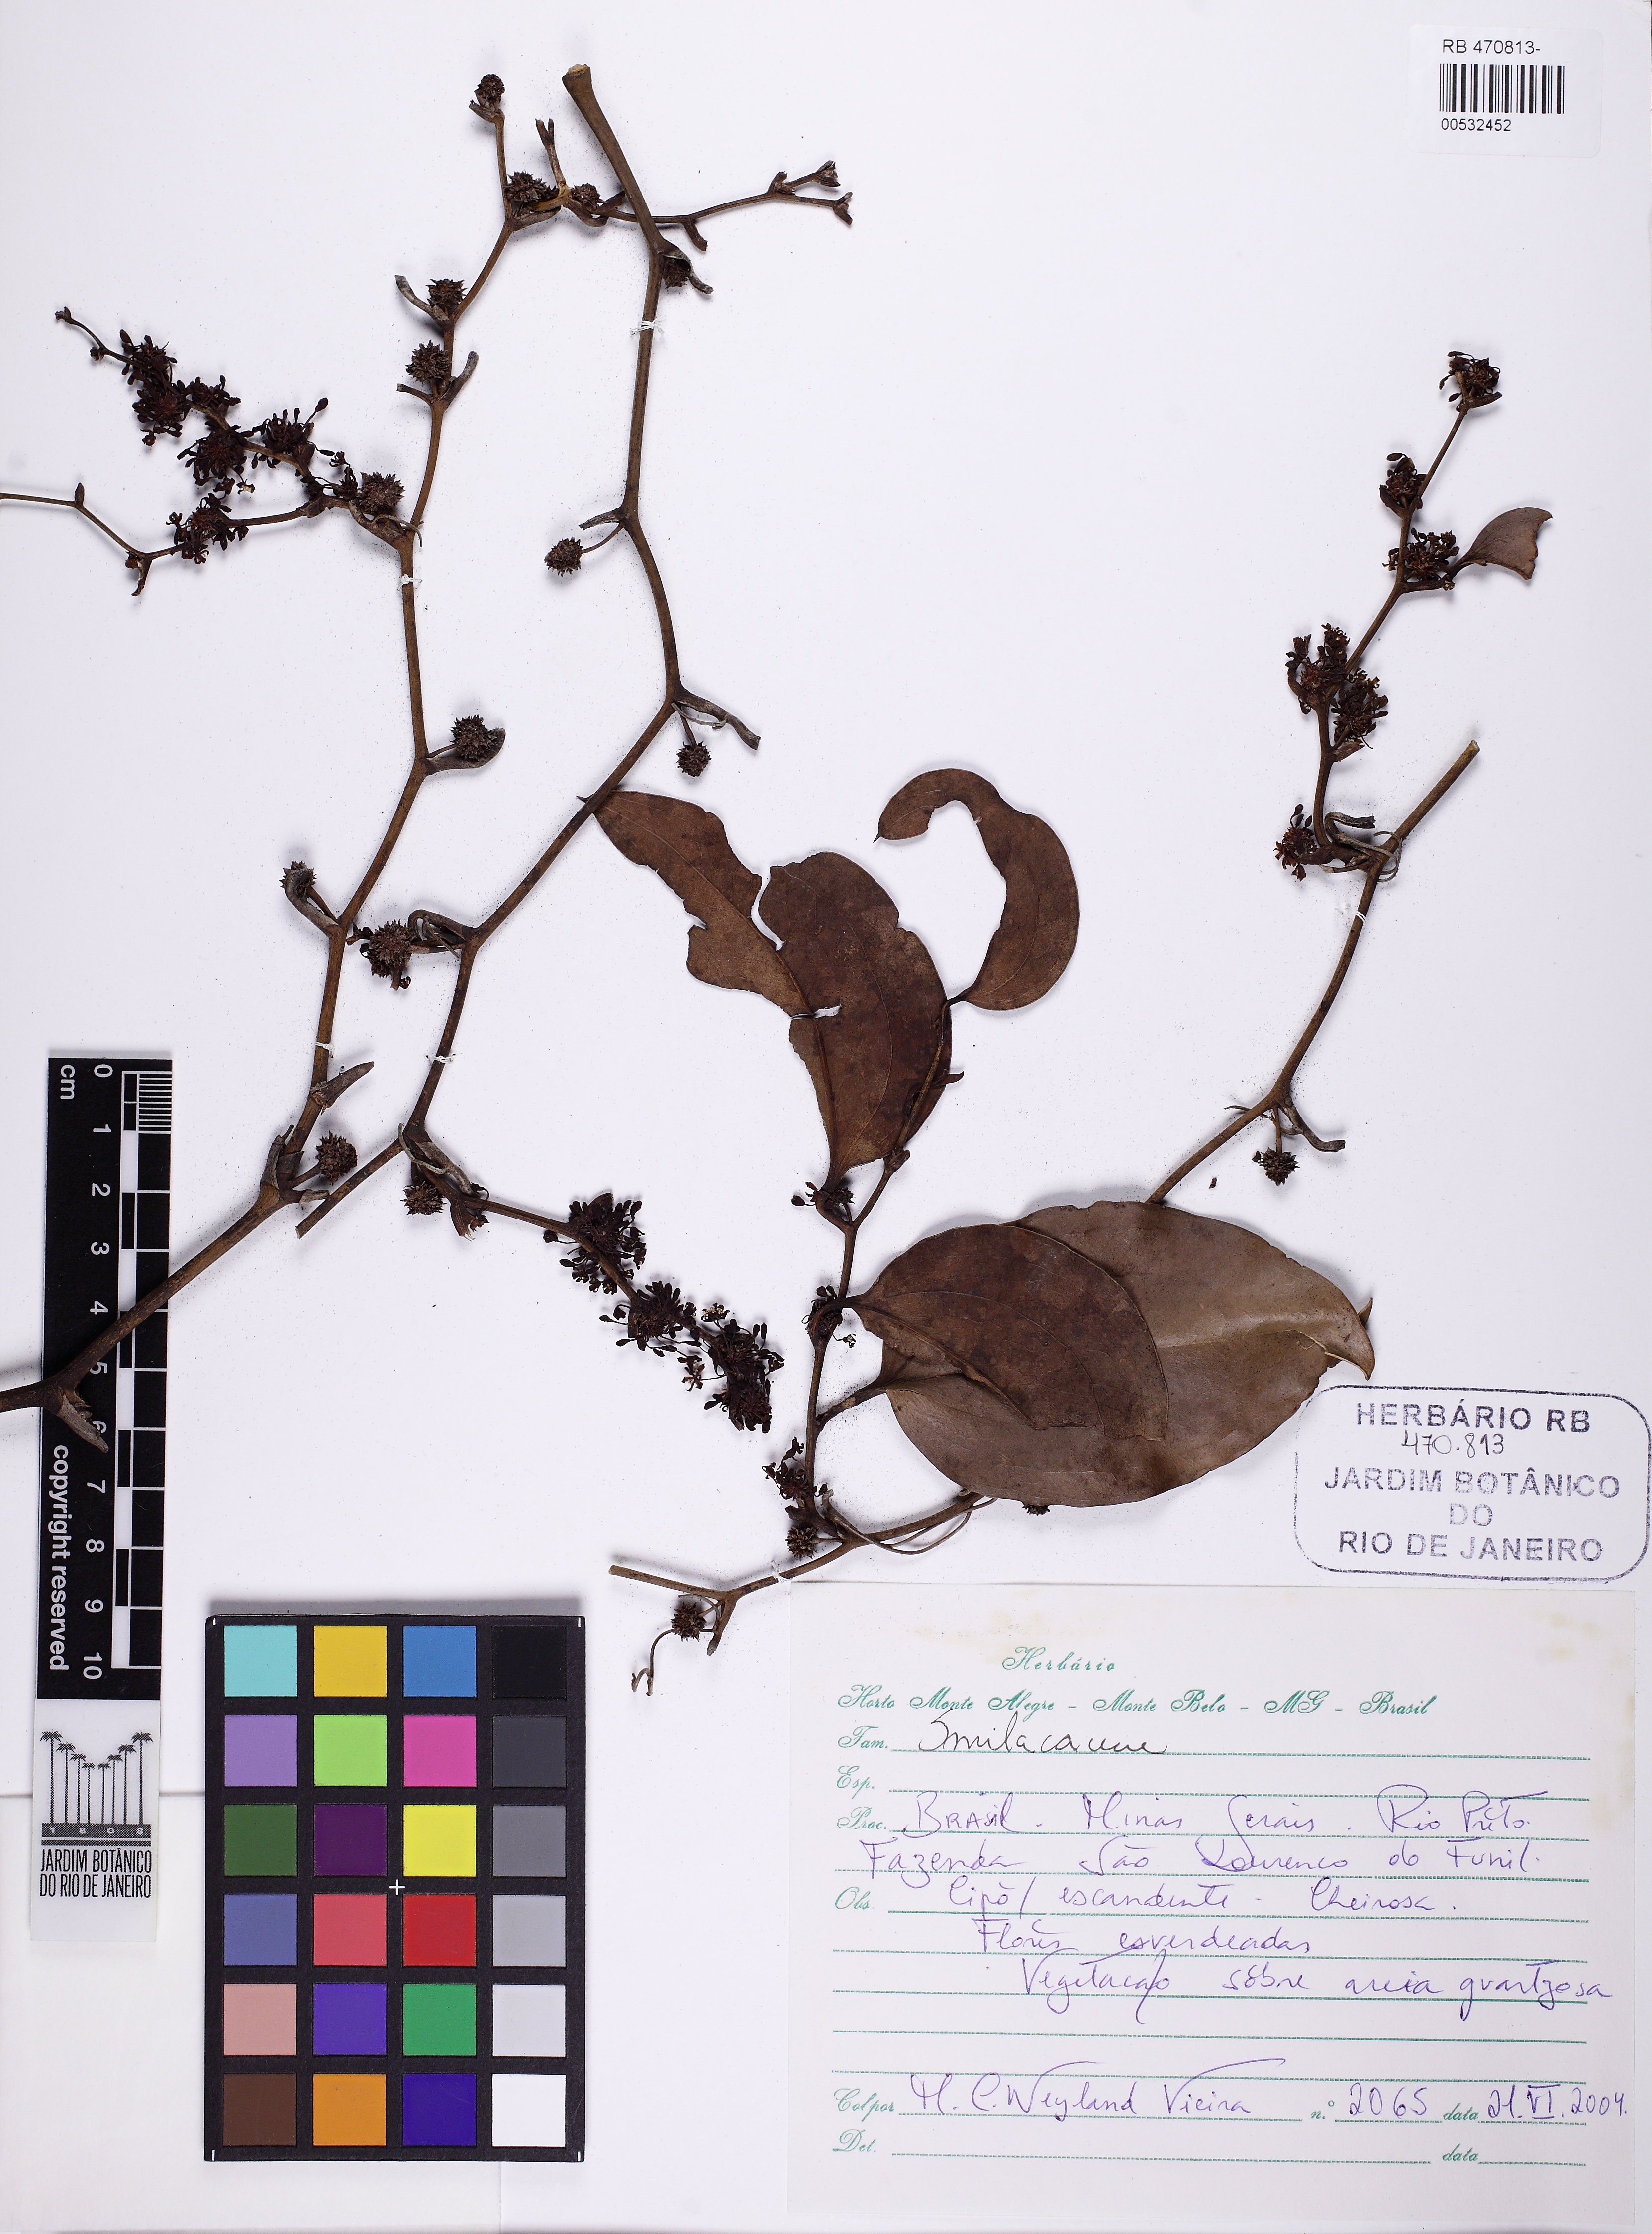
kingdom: Plantae
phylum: Tracheophyta
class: Liliopsida
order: Liliales
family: Smilacaceae
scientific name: Smilacaceae
